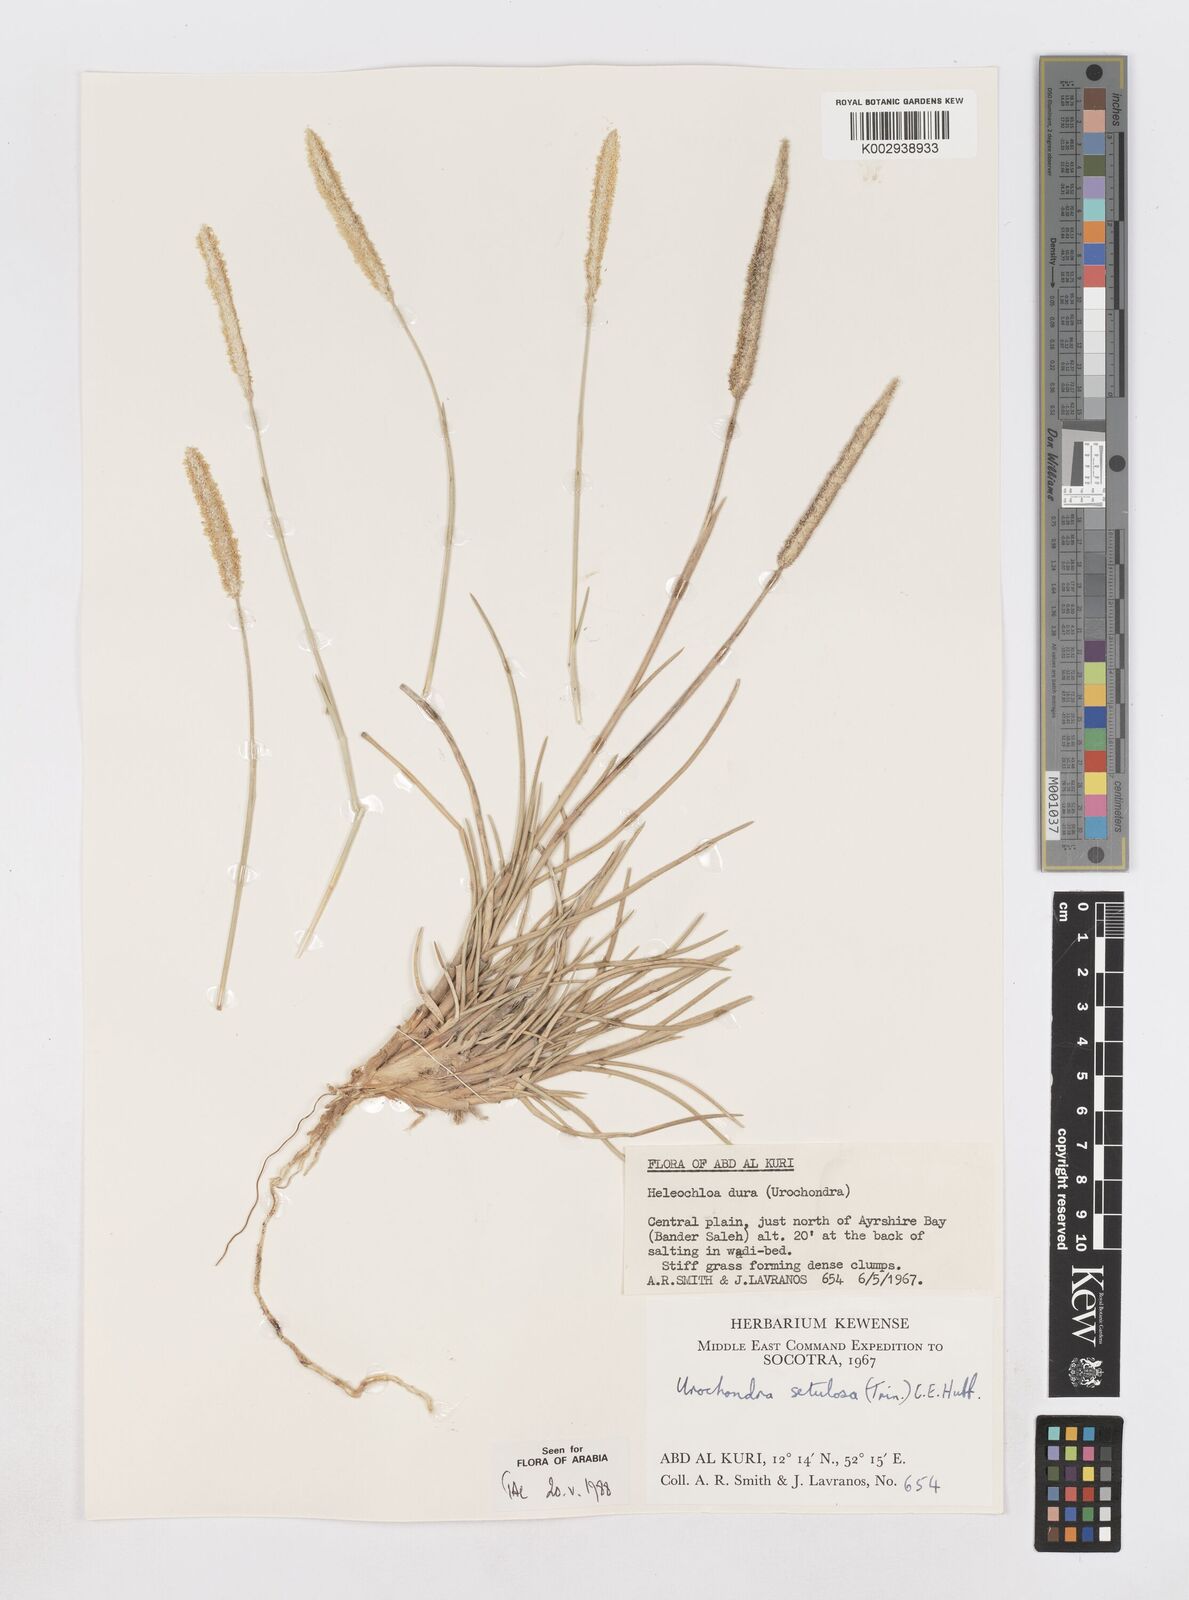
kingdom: Plantae
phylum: Tracheophyta
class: Liliopsida
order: Poales
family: Poaceae
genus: Urochondra
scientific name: Urochondra setulosa
